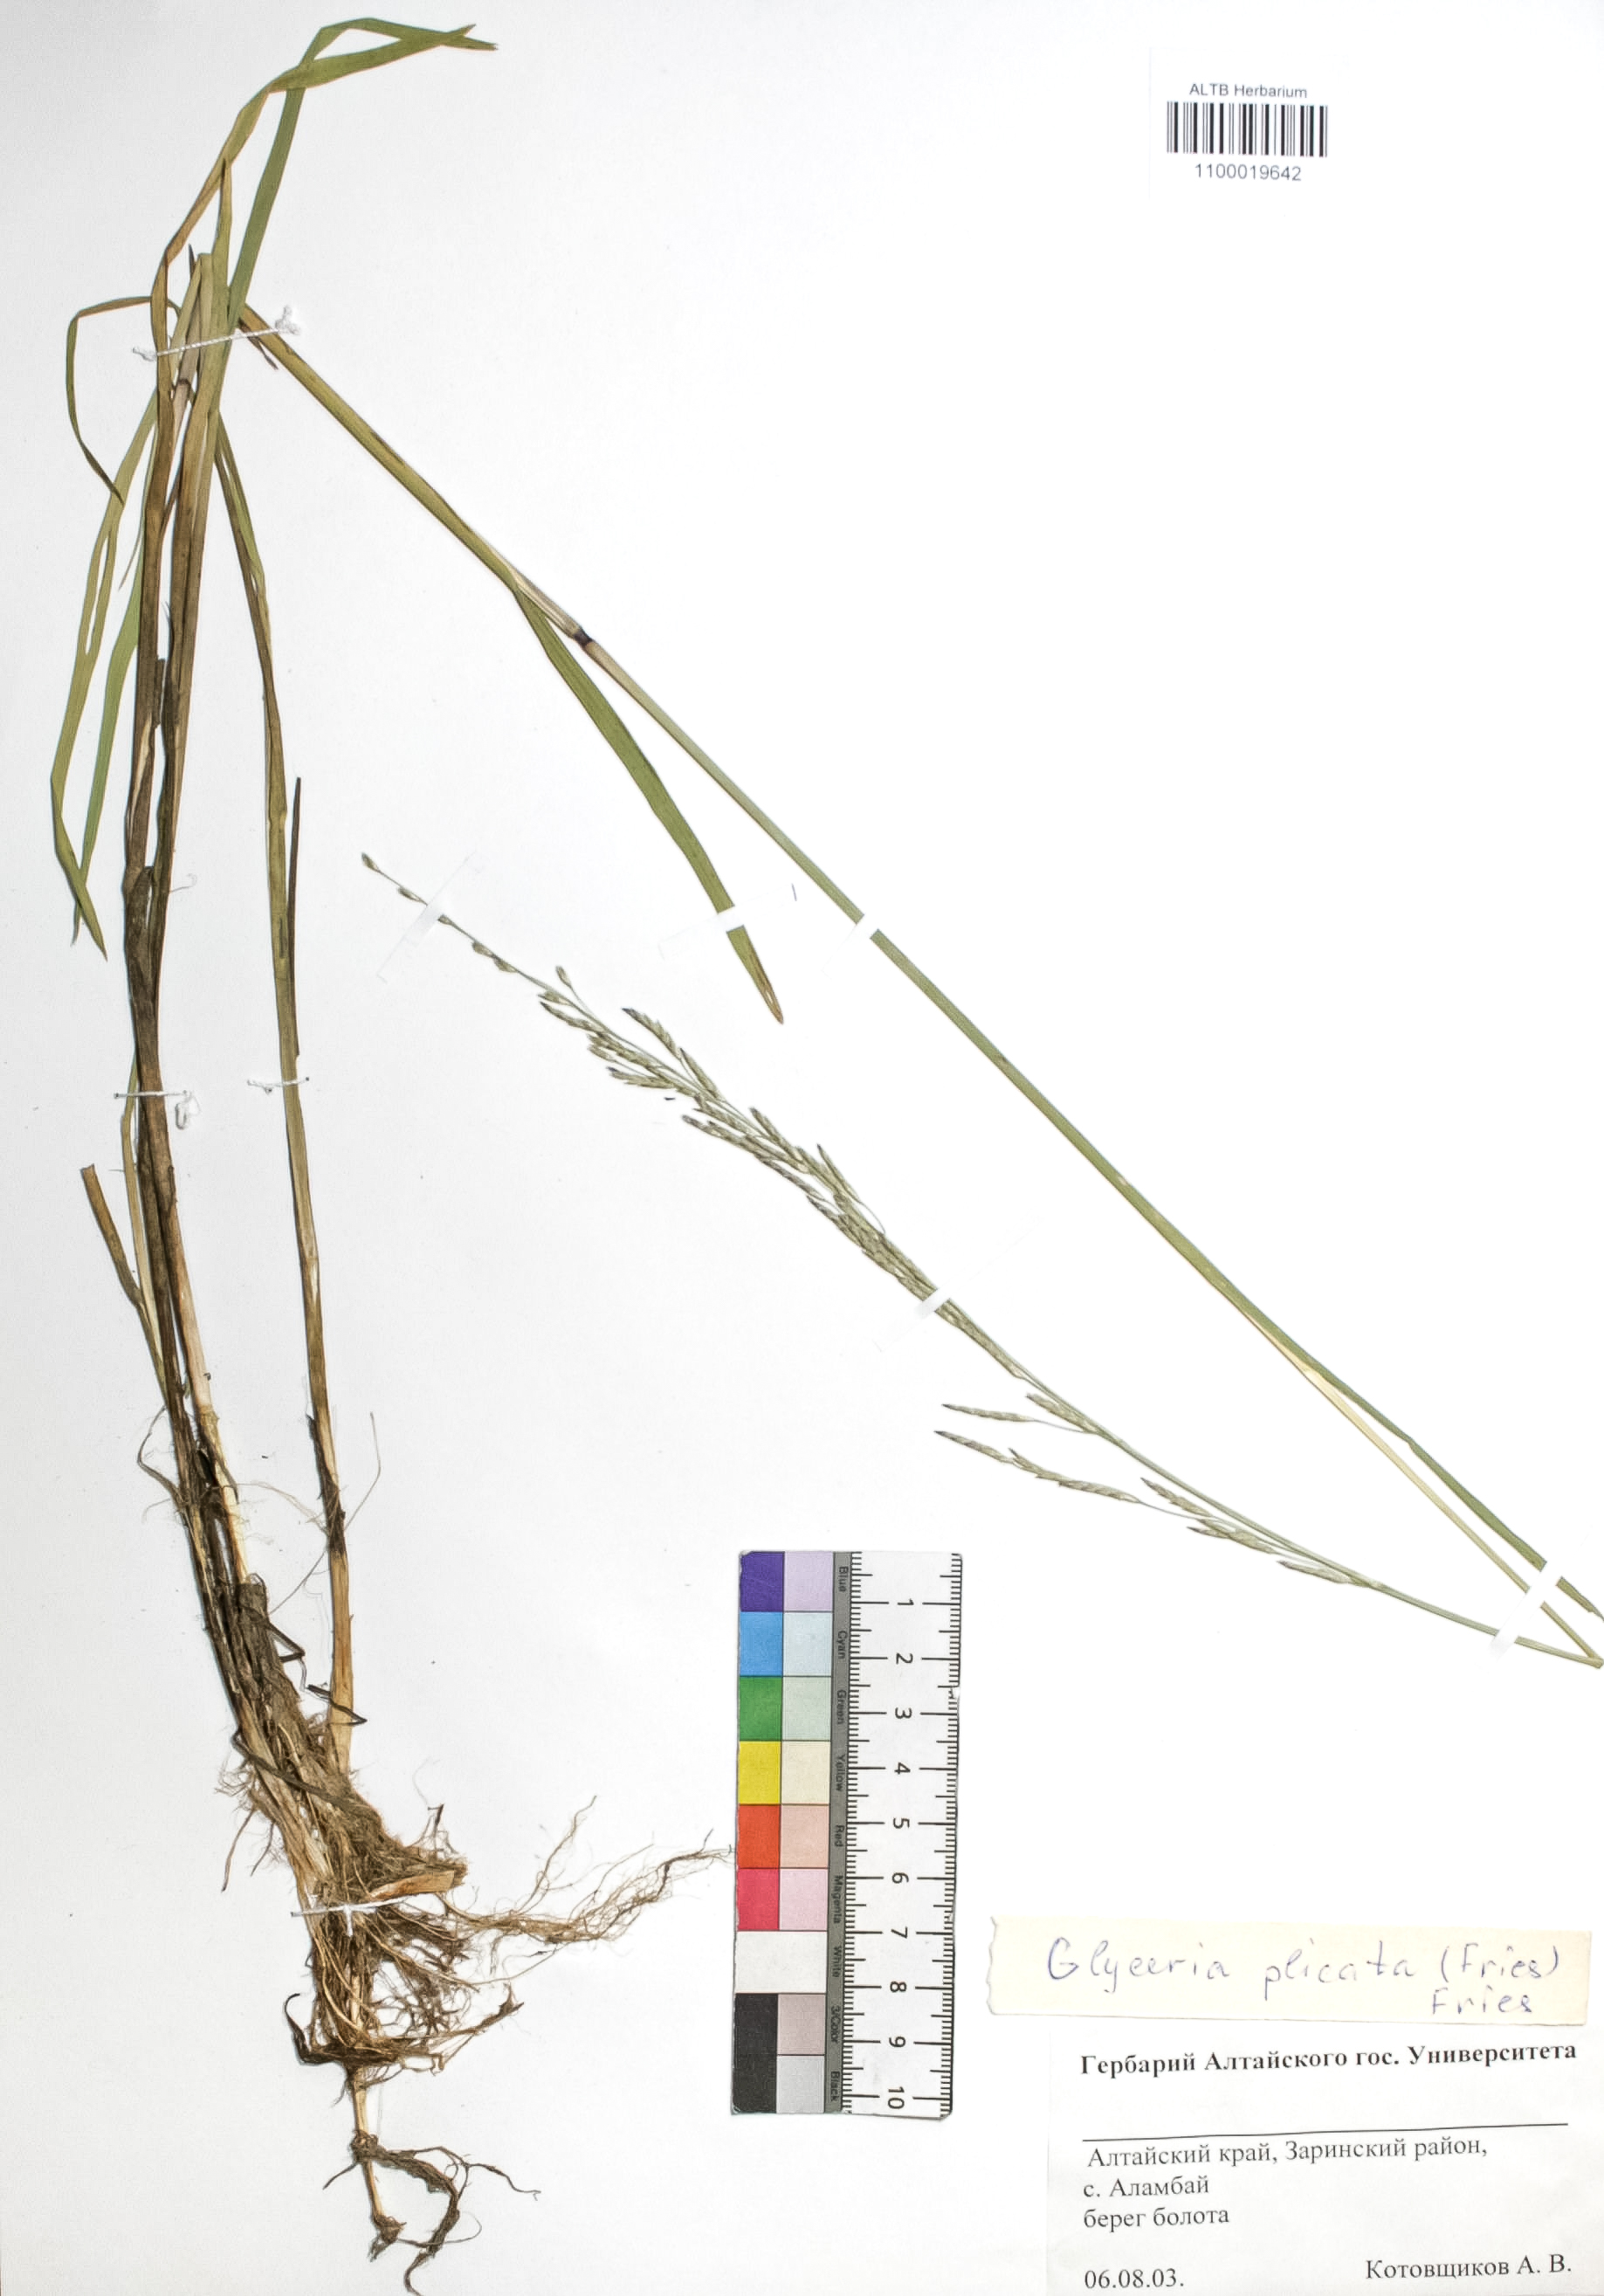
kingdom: Plantae
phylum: Tracheophyta
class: Liliopsida
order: Poales
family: Poaceae
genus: Glyceria
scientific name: Glyceria notata
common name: Plicate sweet-grass
